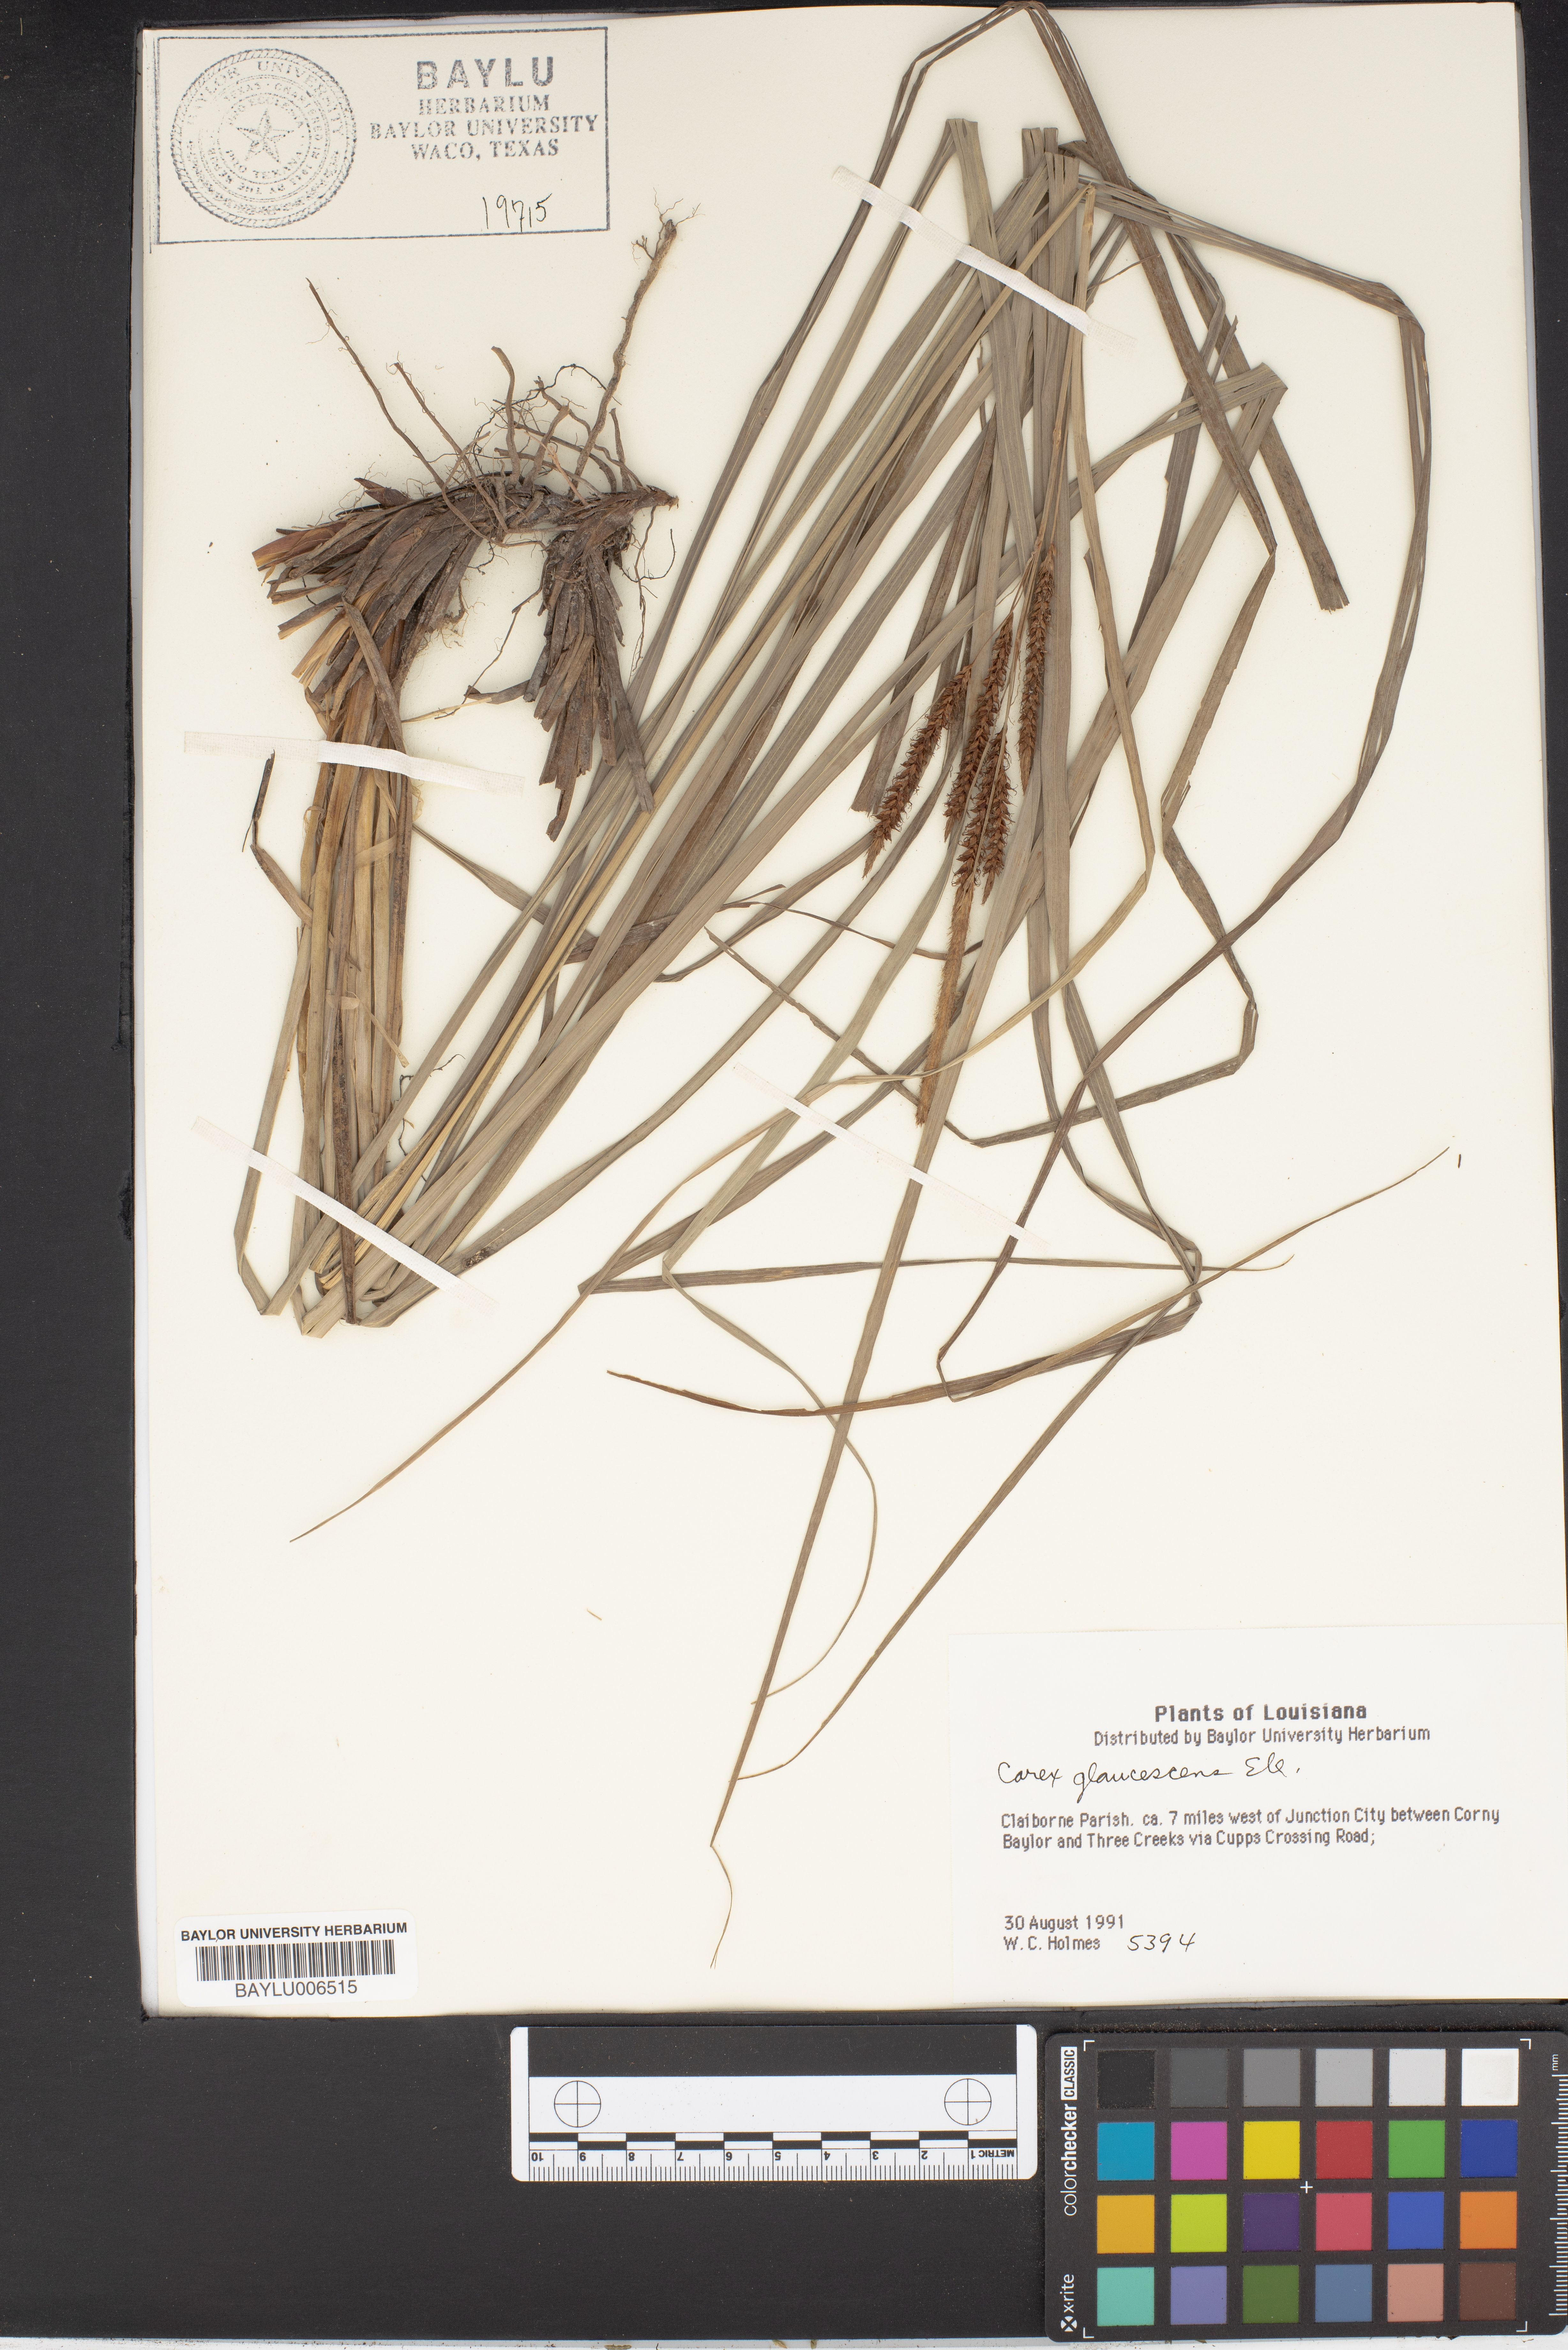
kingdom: Plantae
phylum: Tracheophyta
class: Liliopsida
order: Poales
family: Cyperaceae
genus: Carex
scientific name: Carex glaucescens
